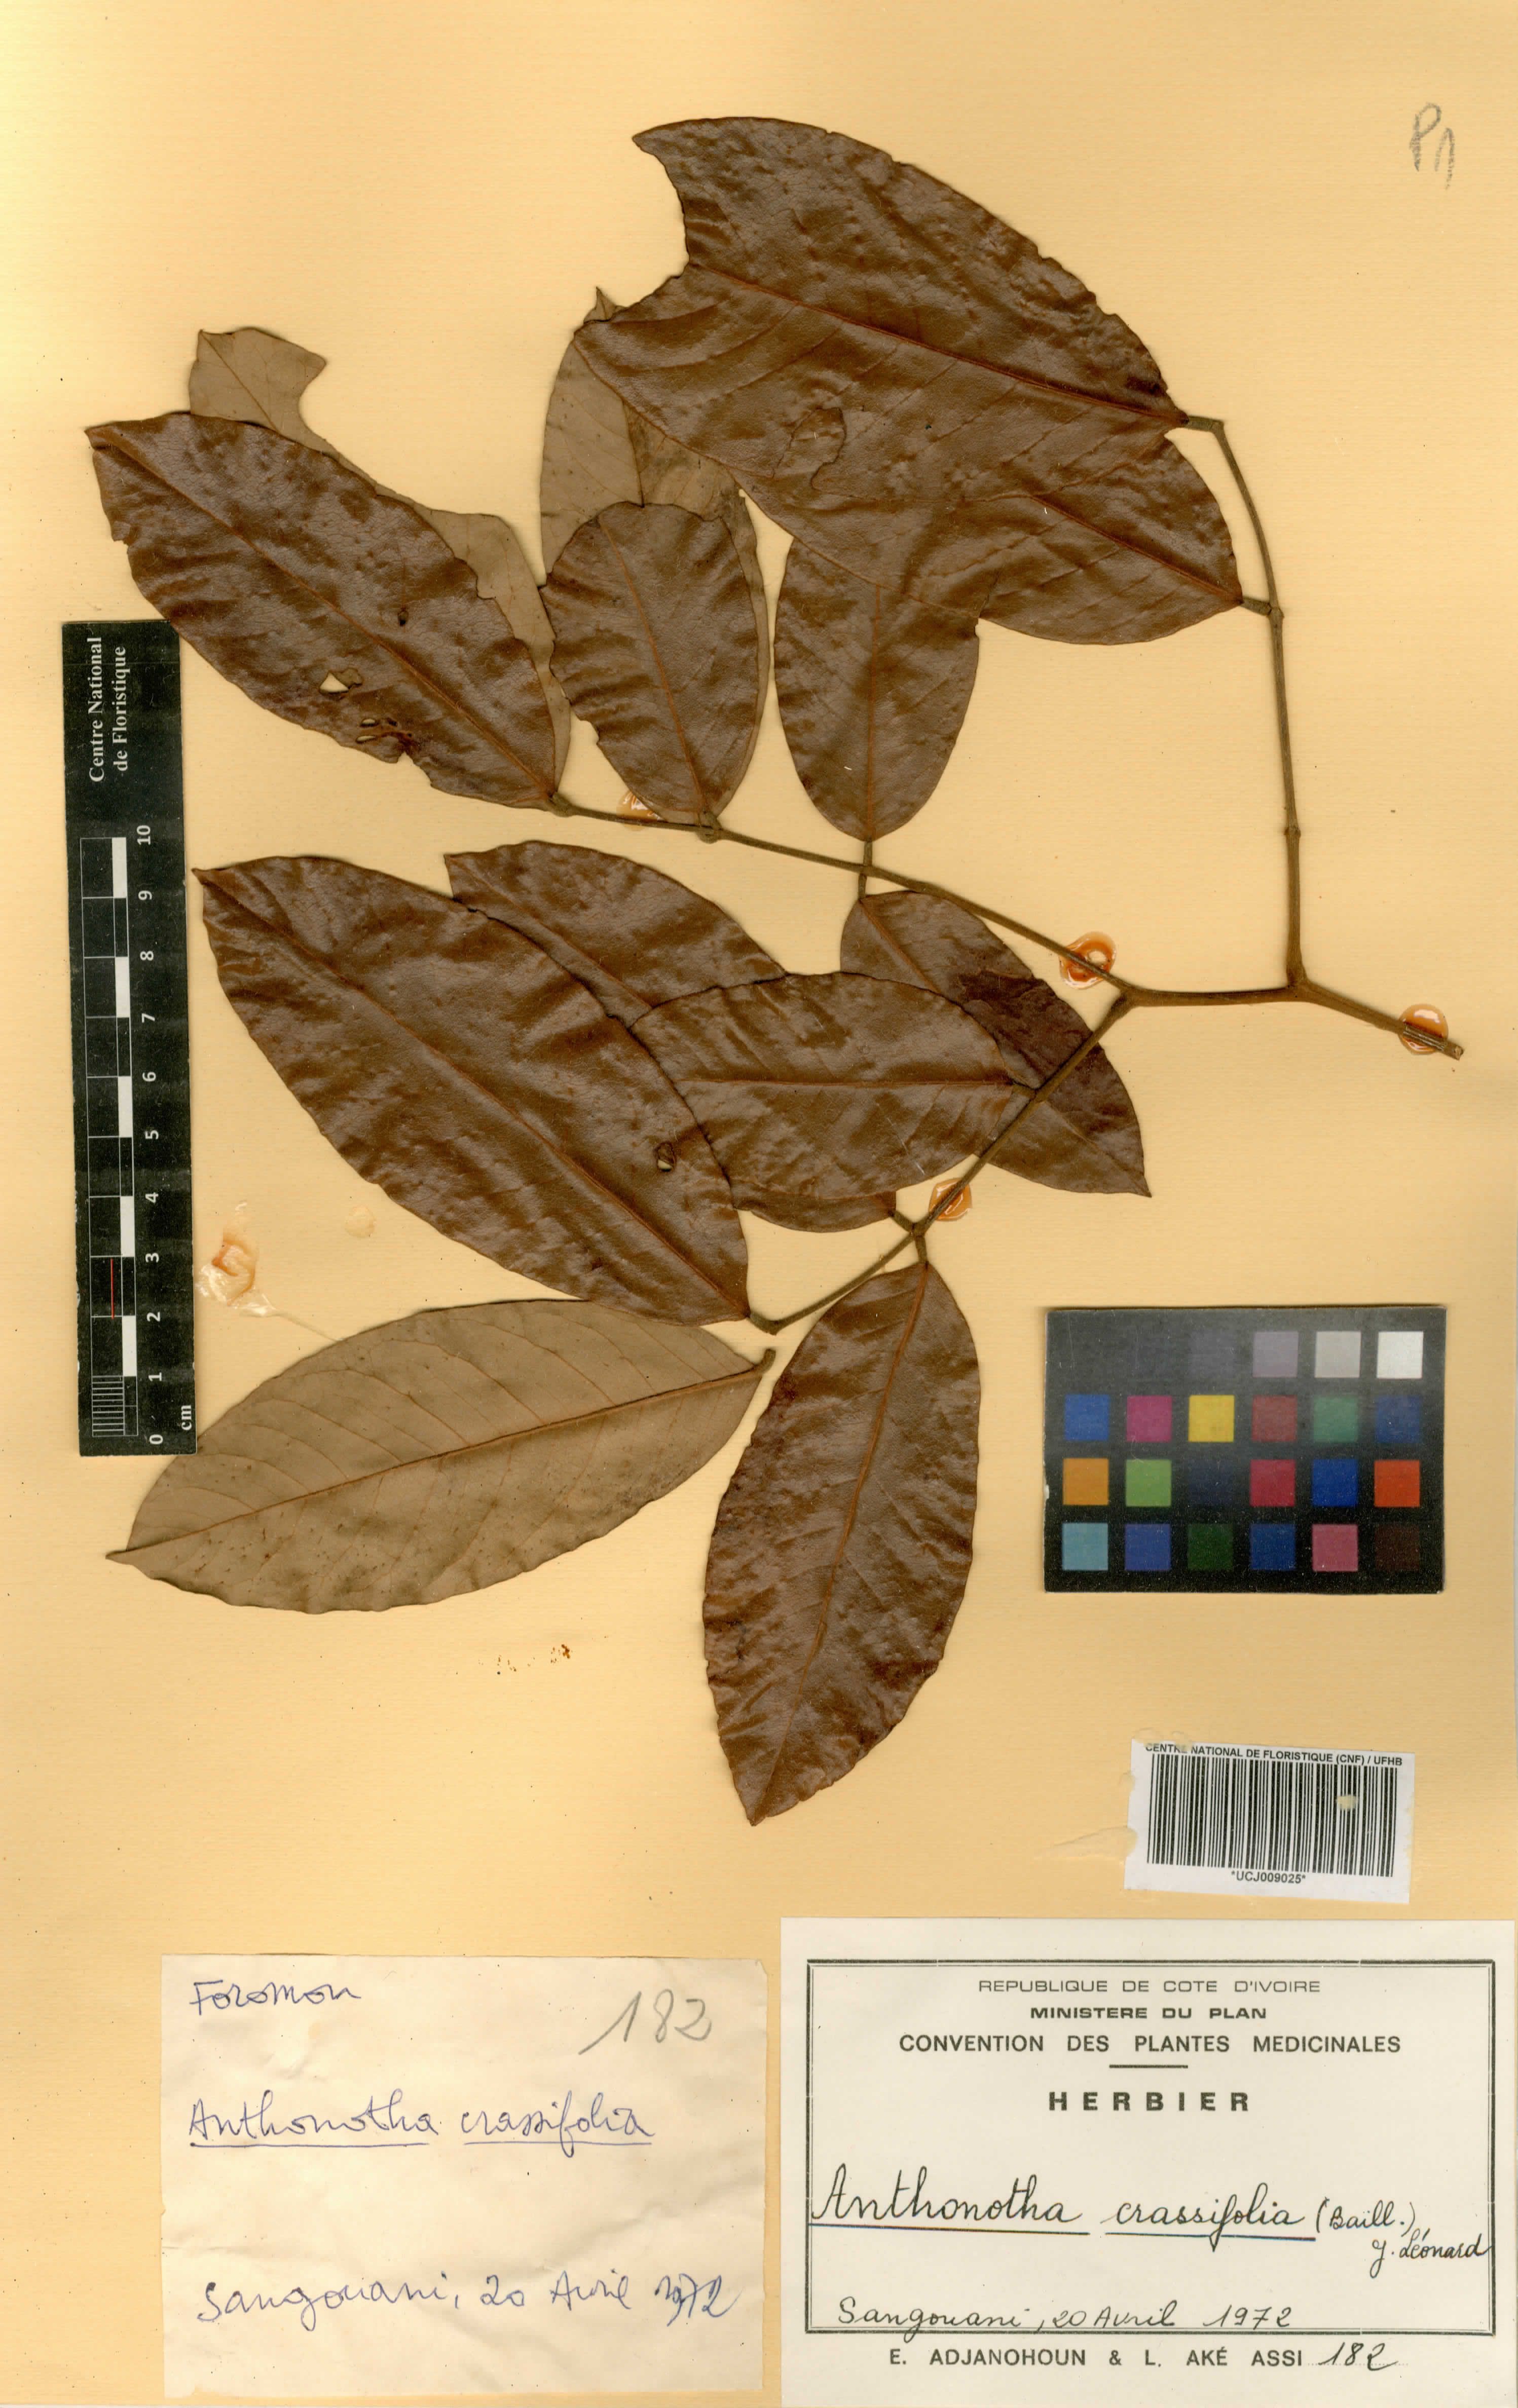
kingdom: Plantae
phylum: Tracheophyta
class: Magnoliopsida
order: Fabales
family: Fabaceae
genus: Anthonotha
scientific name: Anthonotha crassifolia
